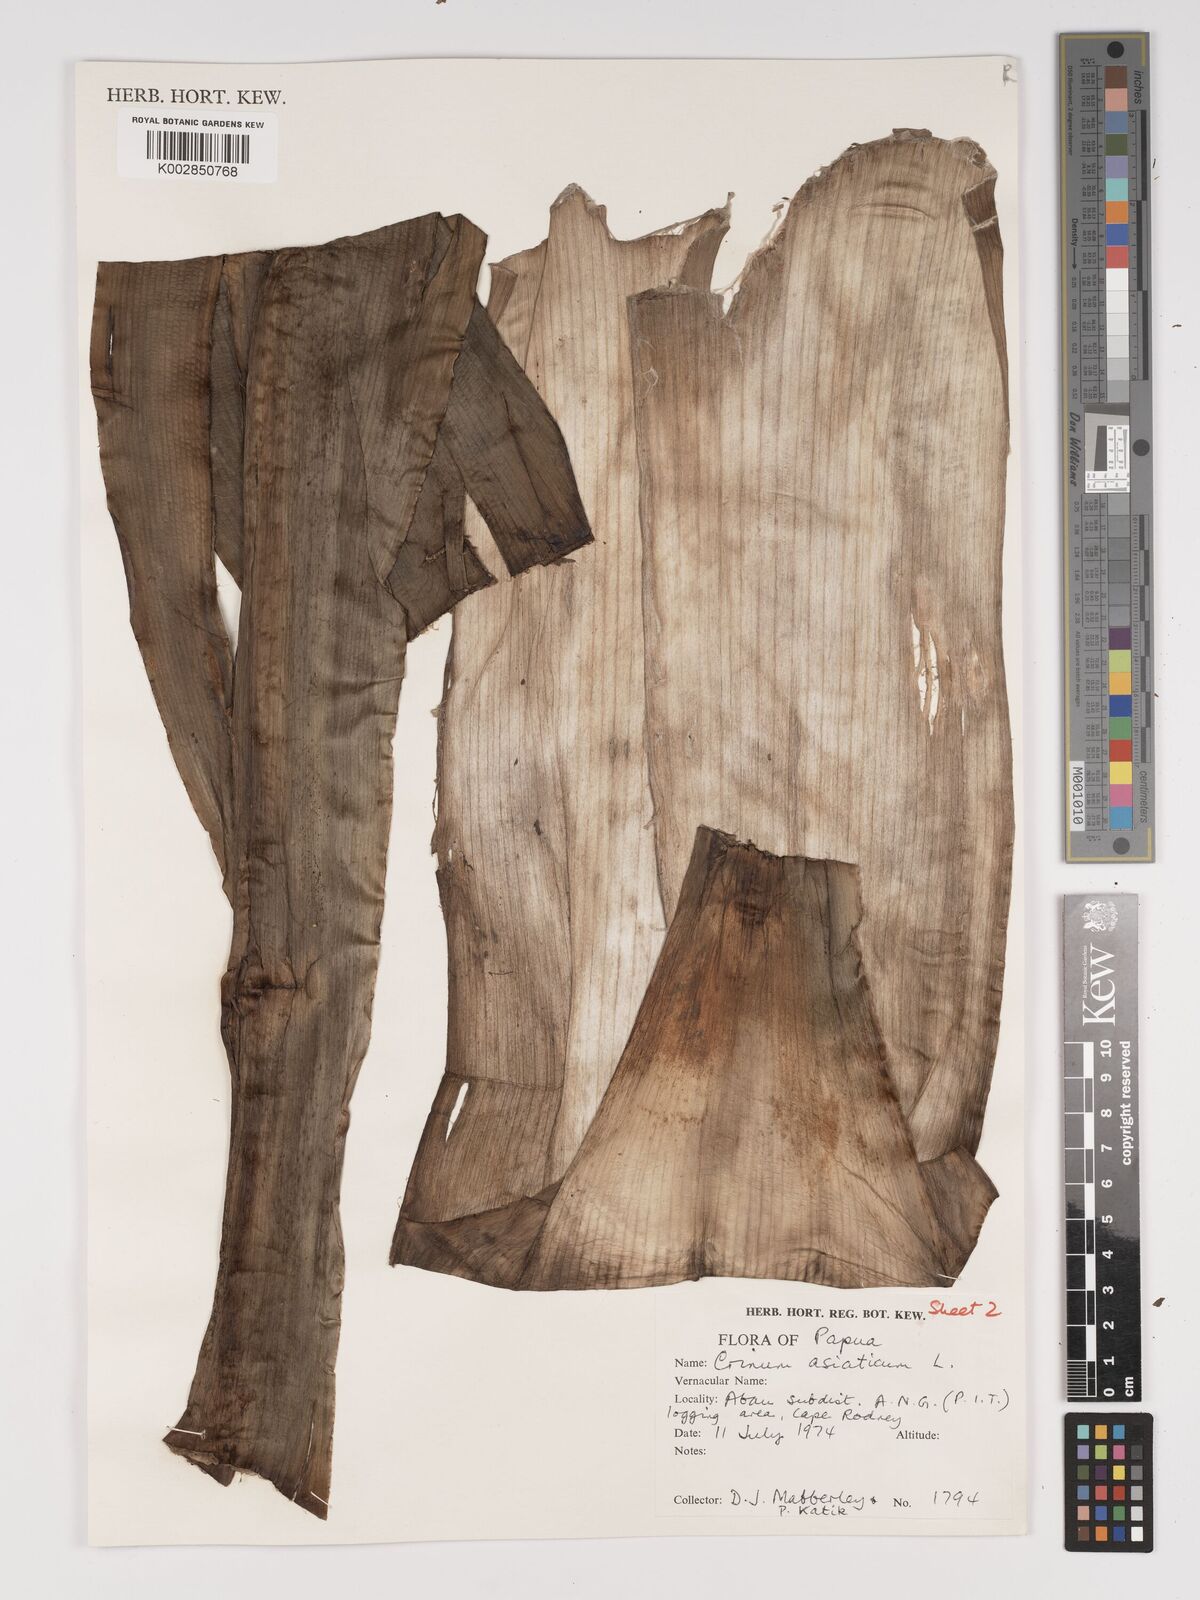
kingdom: Plantae
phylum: Tracheophyta
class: Liliopsida
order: Asparagales
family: Amaryllidaceae
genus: Crinum
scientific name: Crinum asiaticum
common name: Poisonbulb
